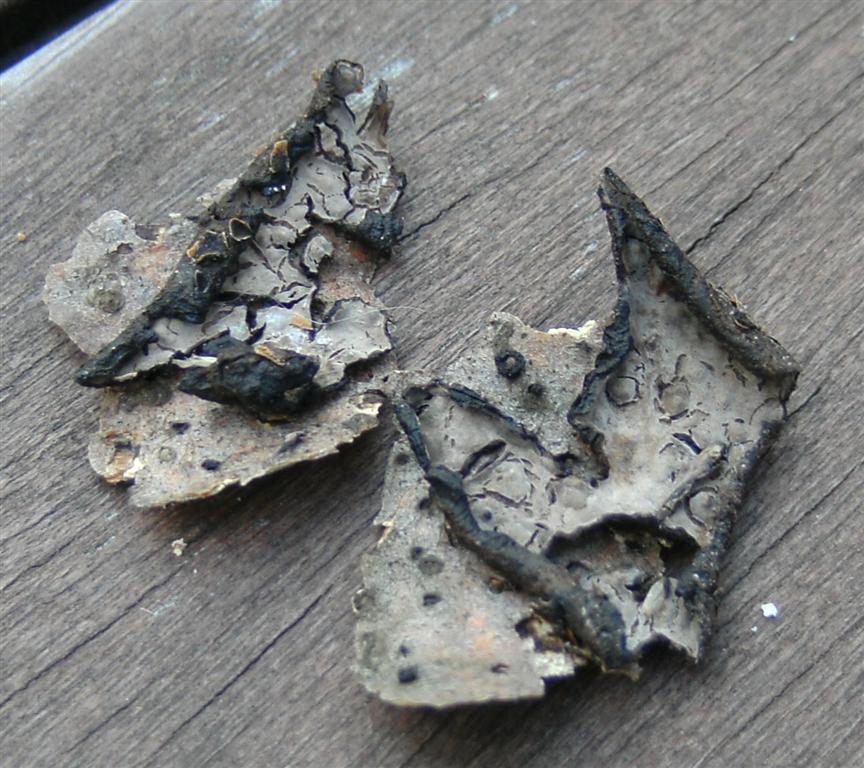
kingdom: Fungi
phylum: Basidiomycota
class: Agaricomycetes
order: Russulales
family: Peniophoraceae
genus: Peniophora
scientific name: Peniophora quercina
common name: ege-voksskind
